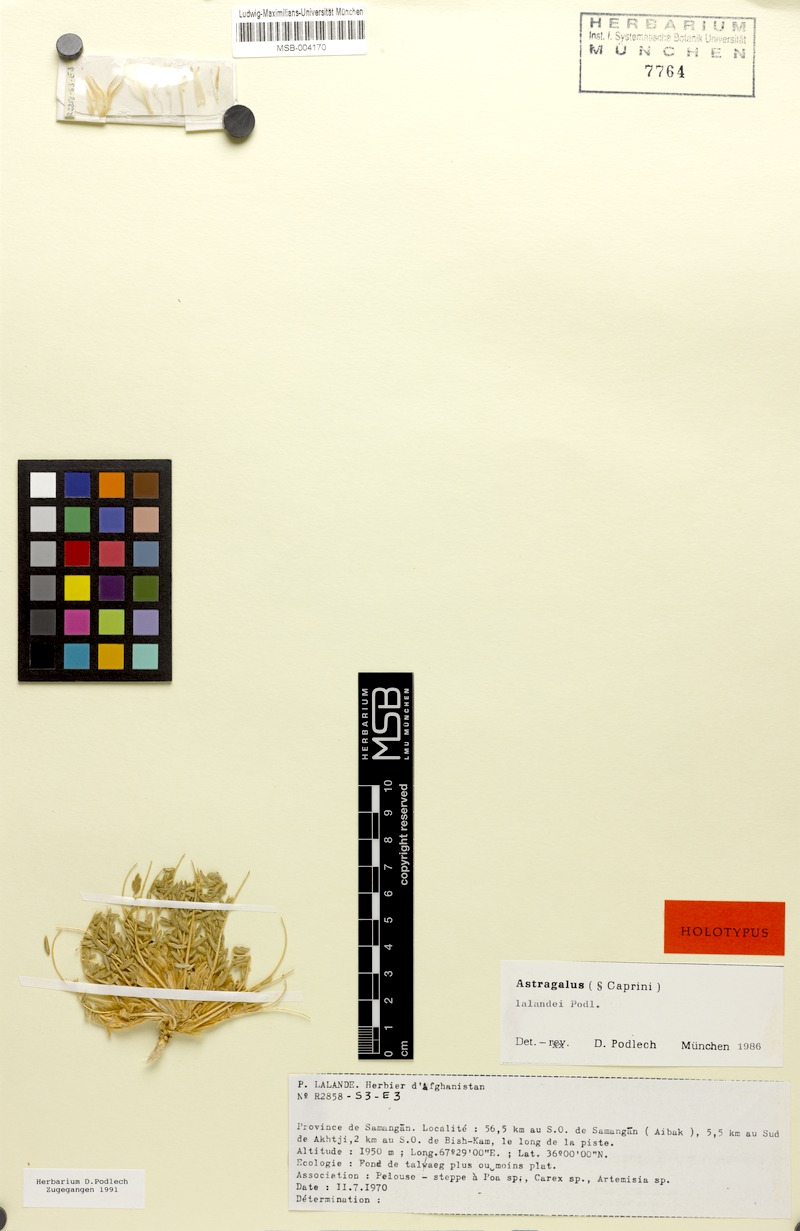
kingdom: Plantae
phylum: Tracheophyta
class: Magnoliopsida
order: Fabales
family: Fabaceae
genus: Astragalus
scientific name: Astragalus lalandei
